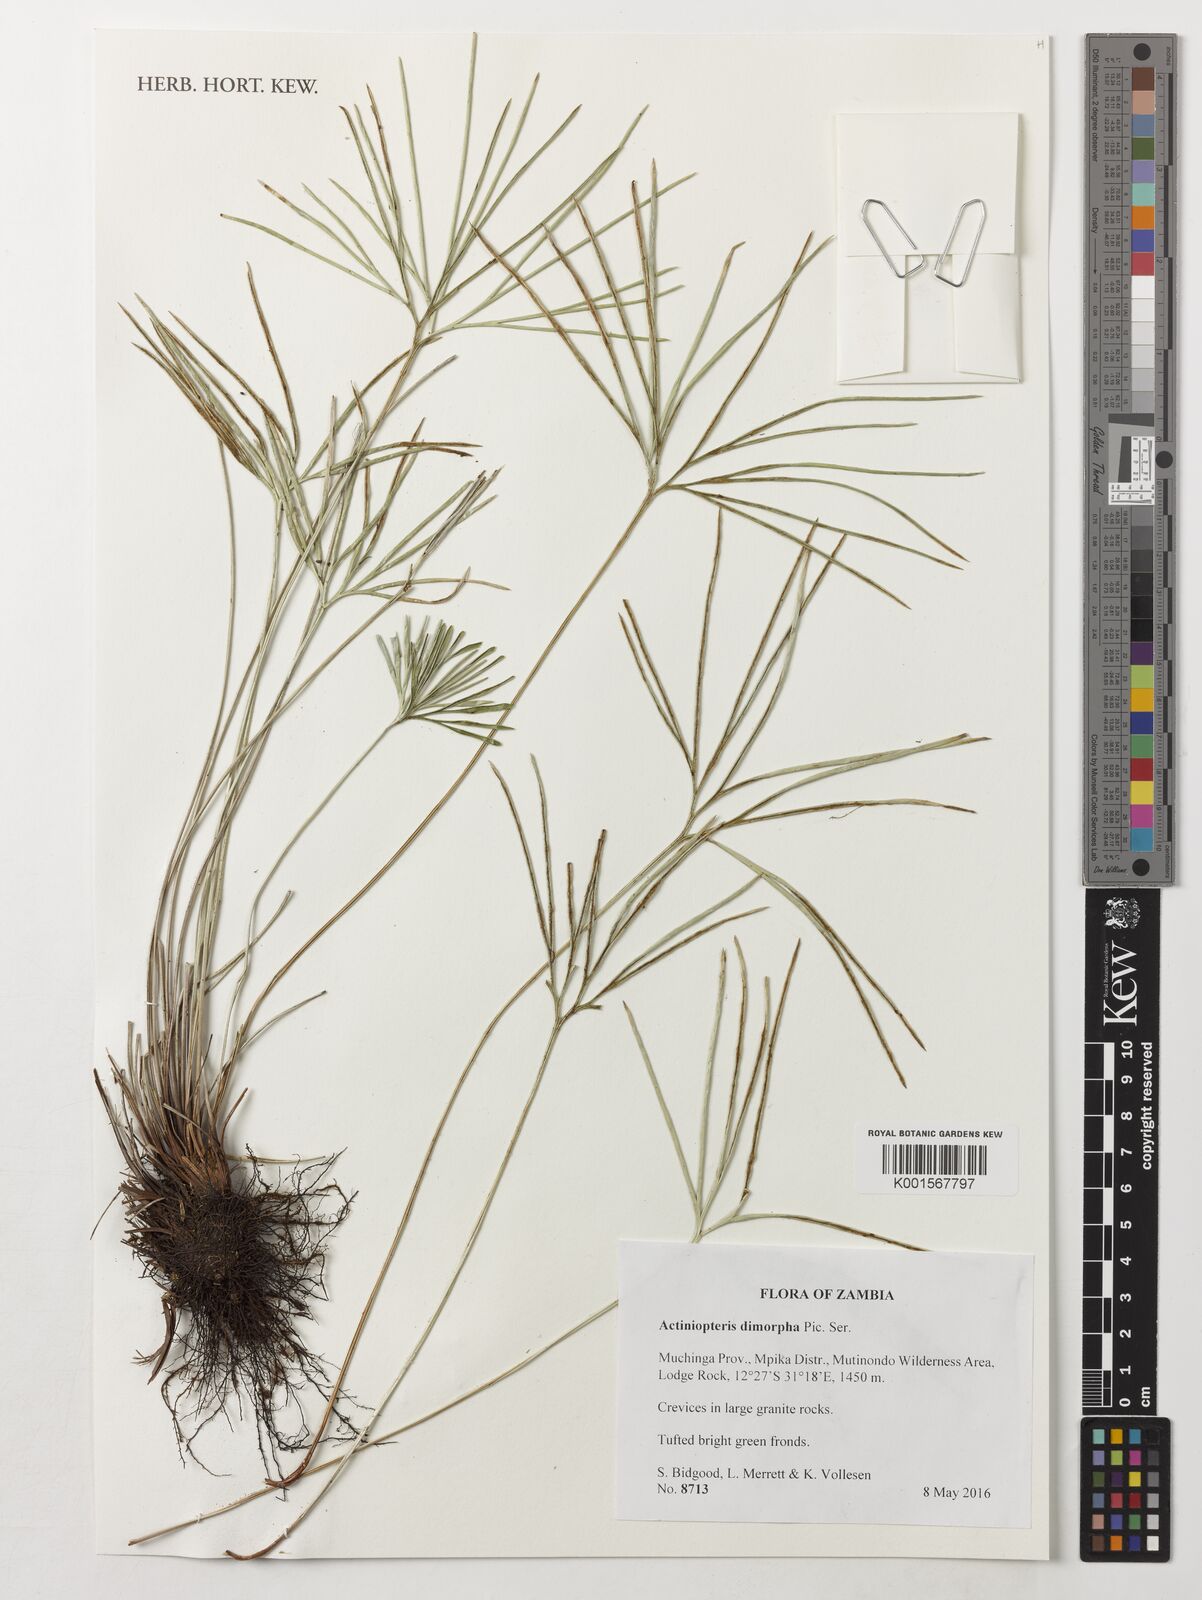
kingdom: Plantae
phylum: Tracheophyta
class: Polypodiopsida
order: Polypodiales
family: Pteridaceae
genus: Actiniopteris
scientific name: Actiniopteris dimorpha
